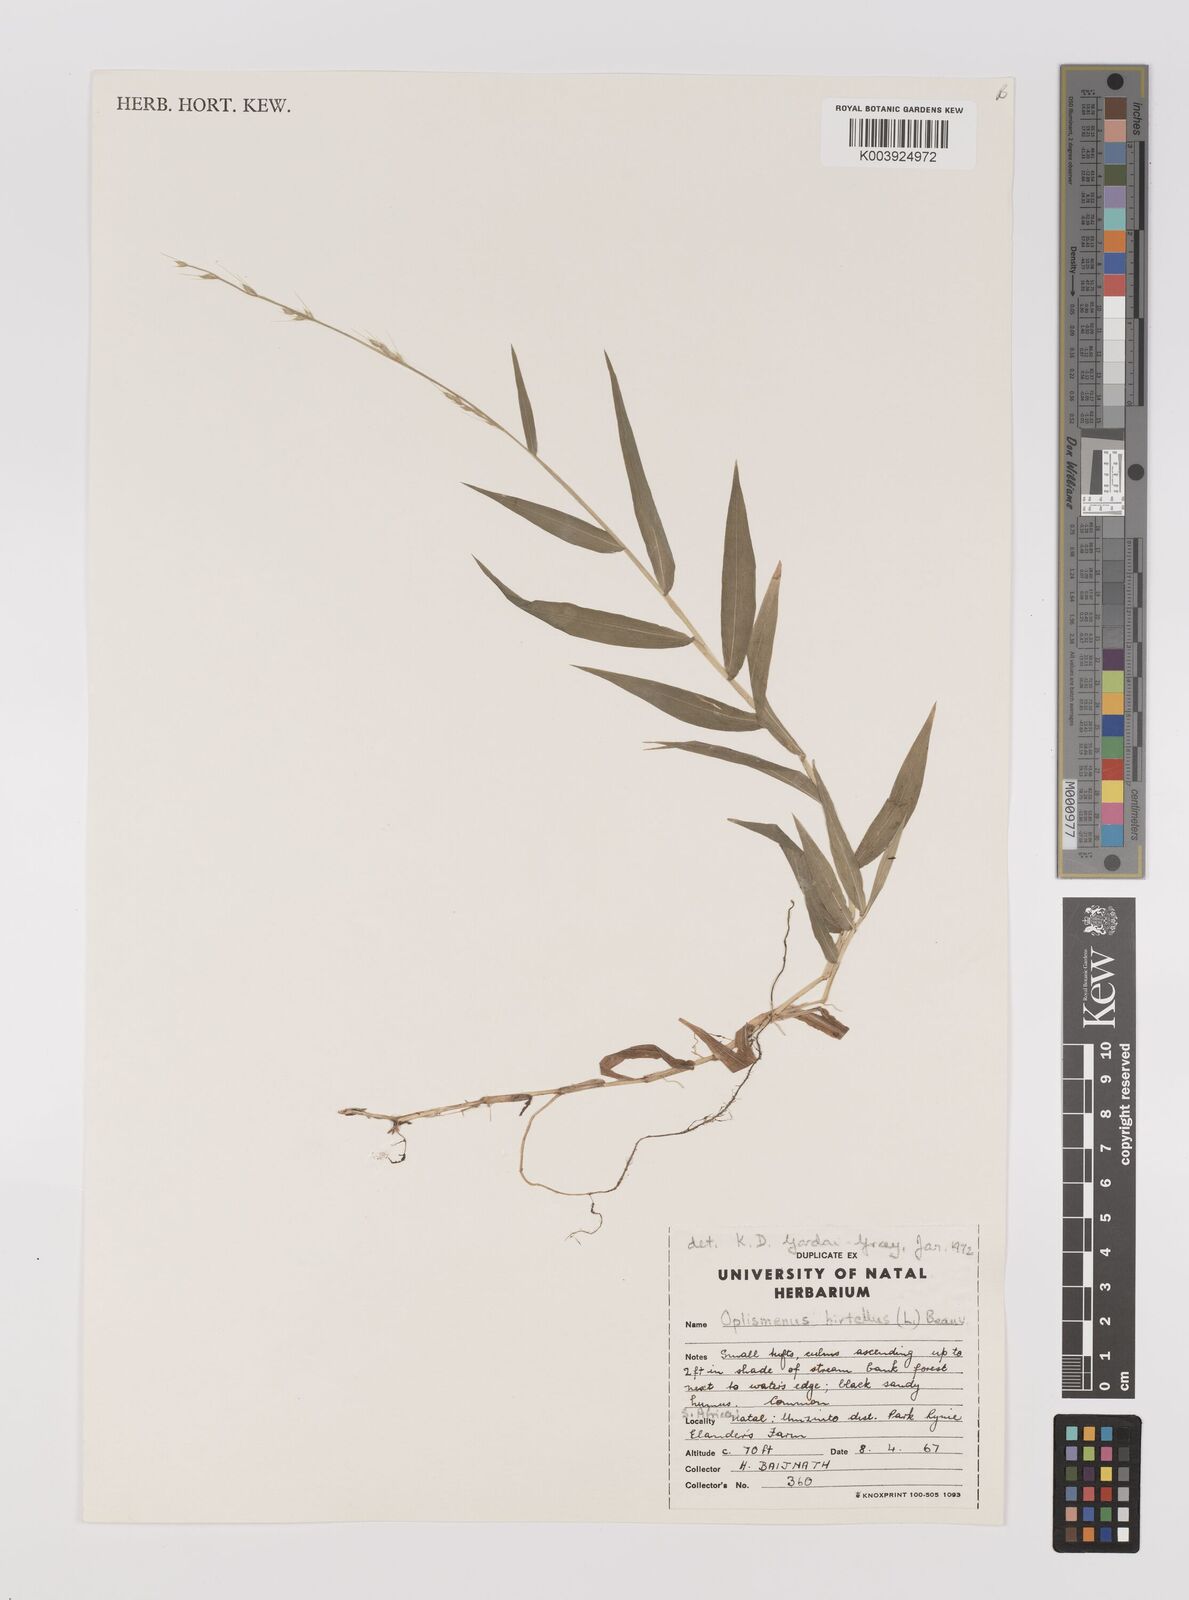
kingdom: Plantae
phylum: Tracheophyta
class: Liliopsida
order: Poales
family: Poaceae
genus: Oplismenus
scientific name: Oplismenus hirtellus
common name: Basketgrass
